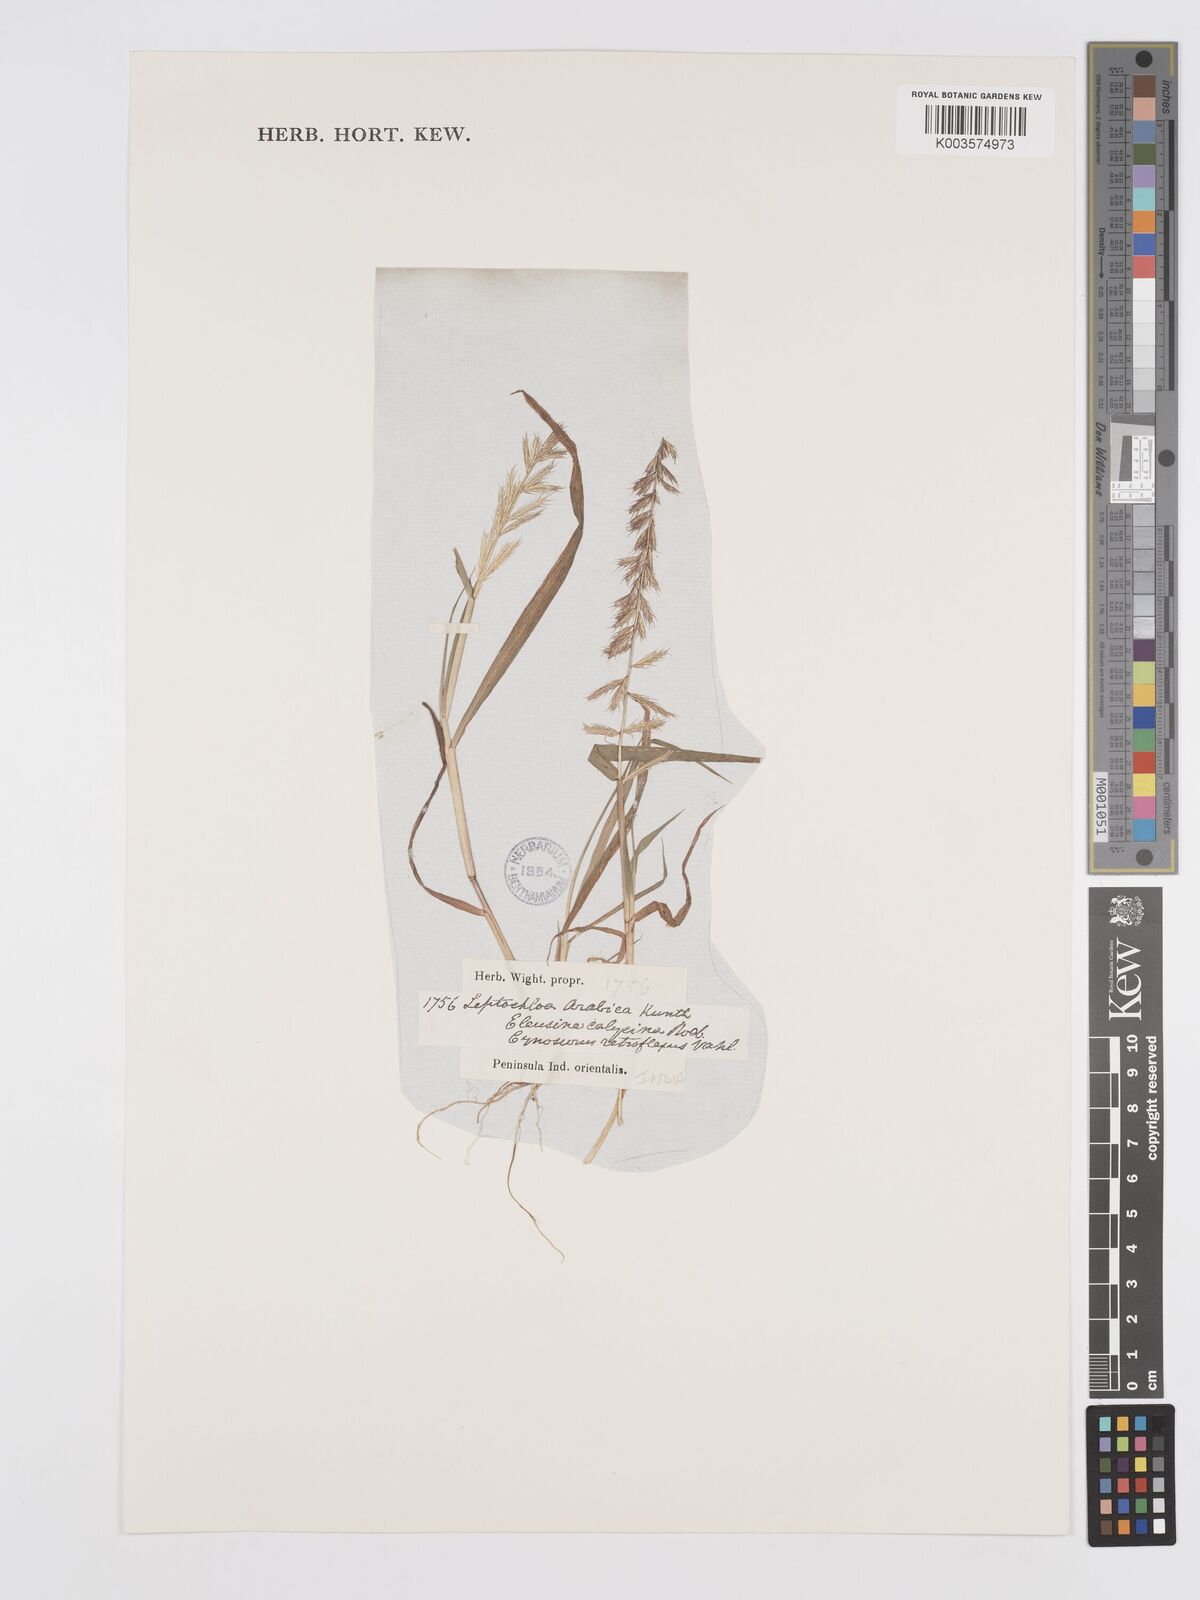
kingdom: Plantae
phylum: Tracheophyta
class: Liliopsida
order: Poales
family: Poaceae
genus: Dinebra
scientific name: Dinebra retroflexa
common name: Viper grass
